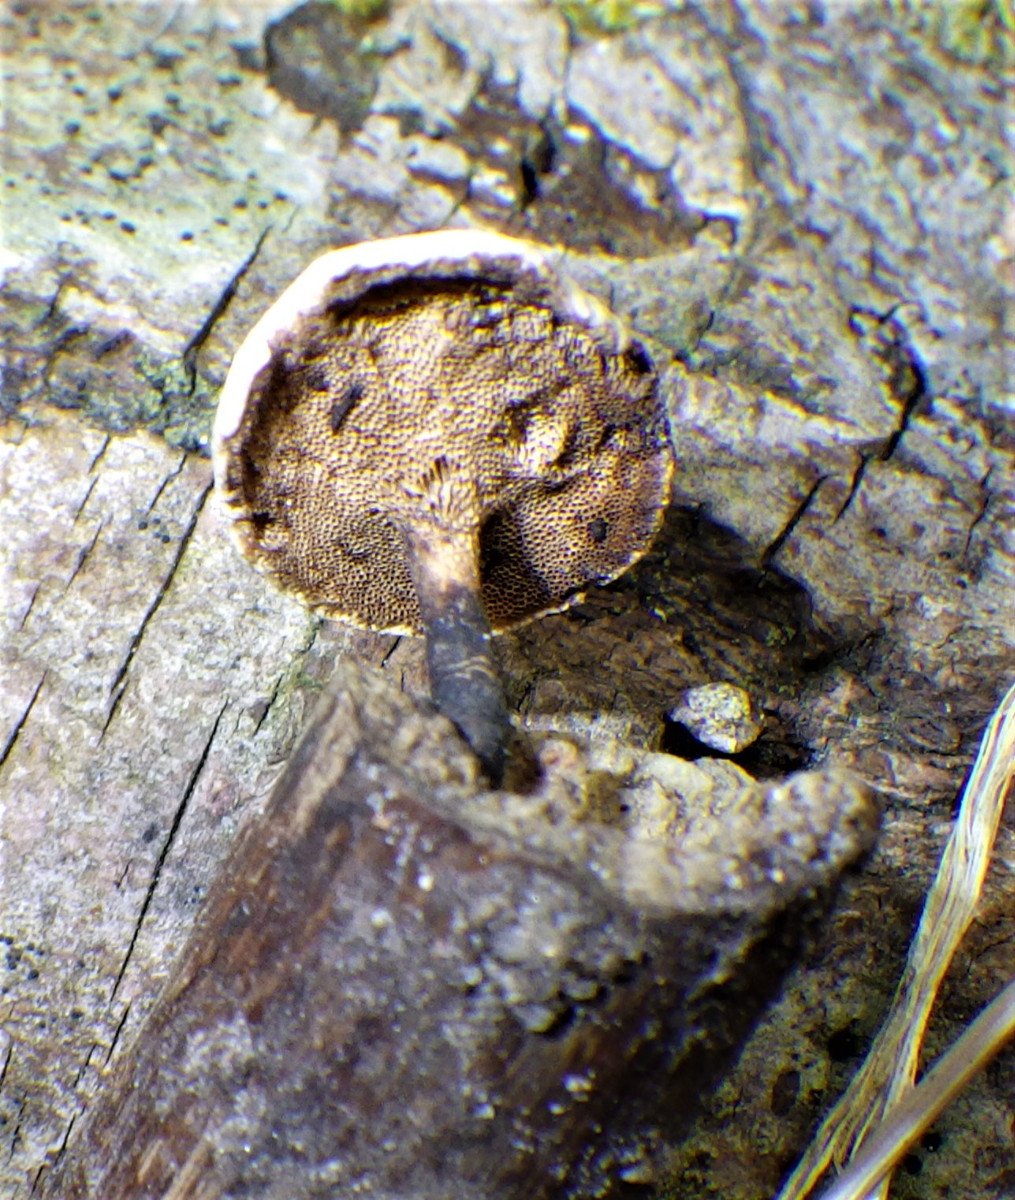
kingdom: Fungi
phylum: Basidiomycota
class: Agaricomycetes
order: Polyporales
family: Polyporaceae
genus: Cerioporus
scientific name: Cerioporus varius
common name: foranderlig stilkporesvamp
